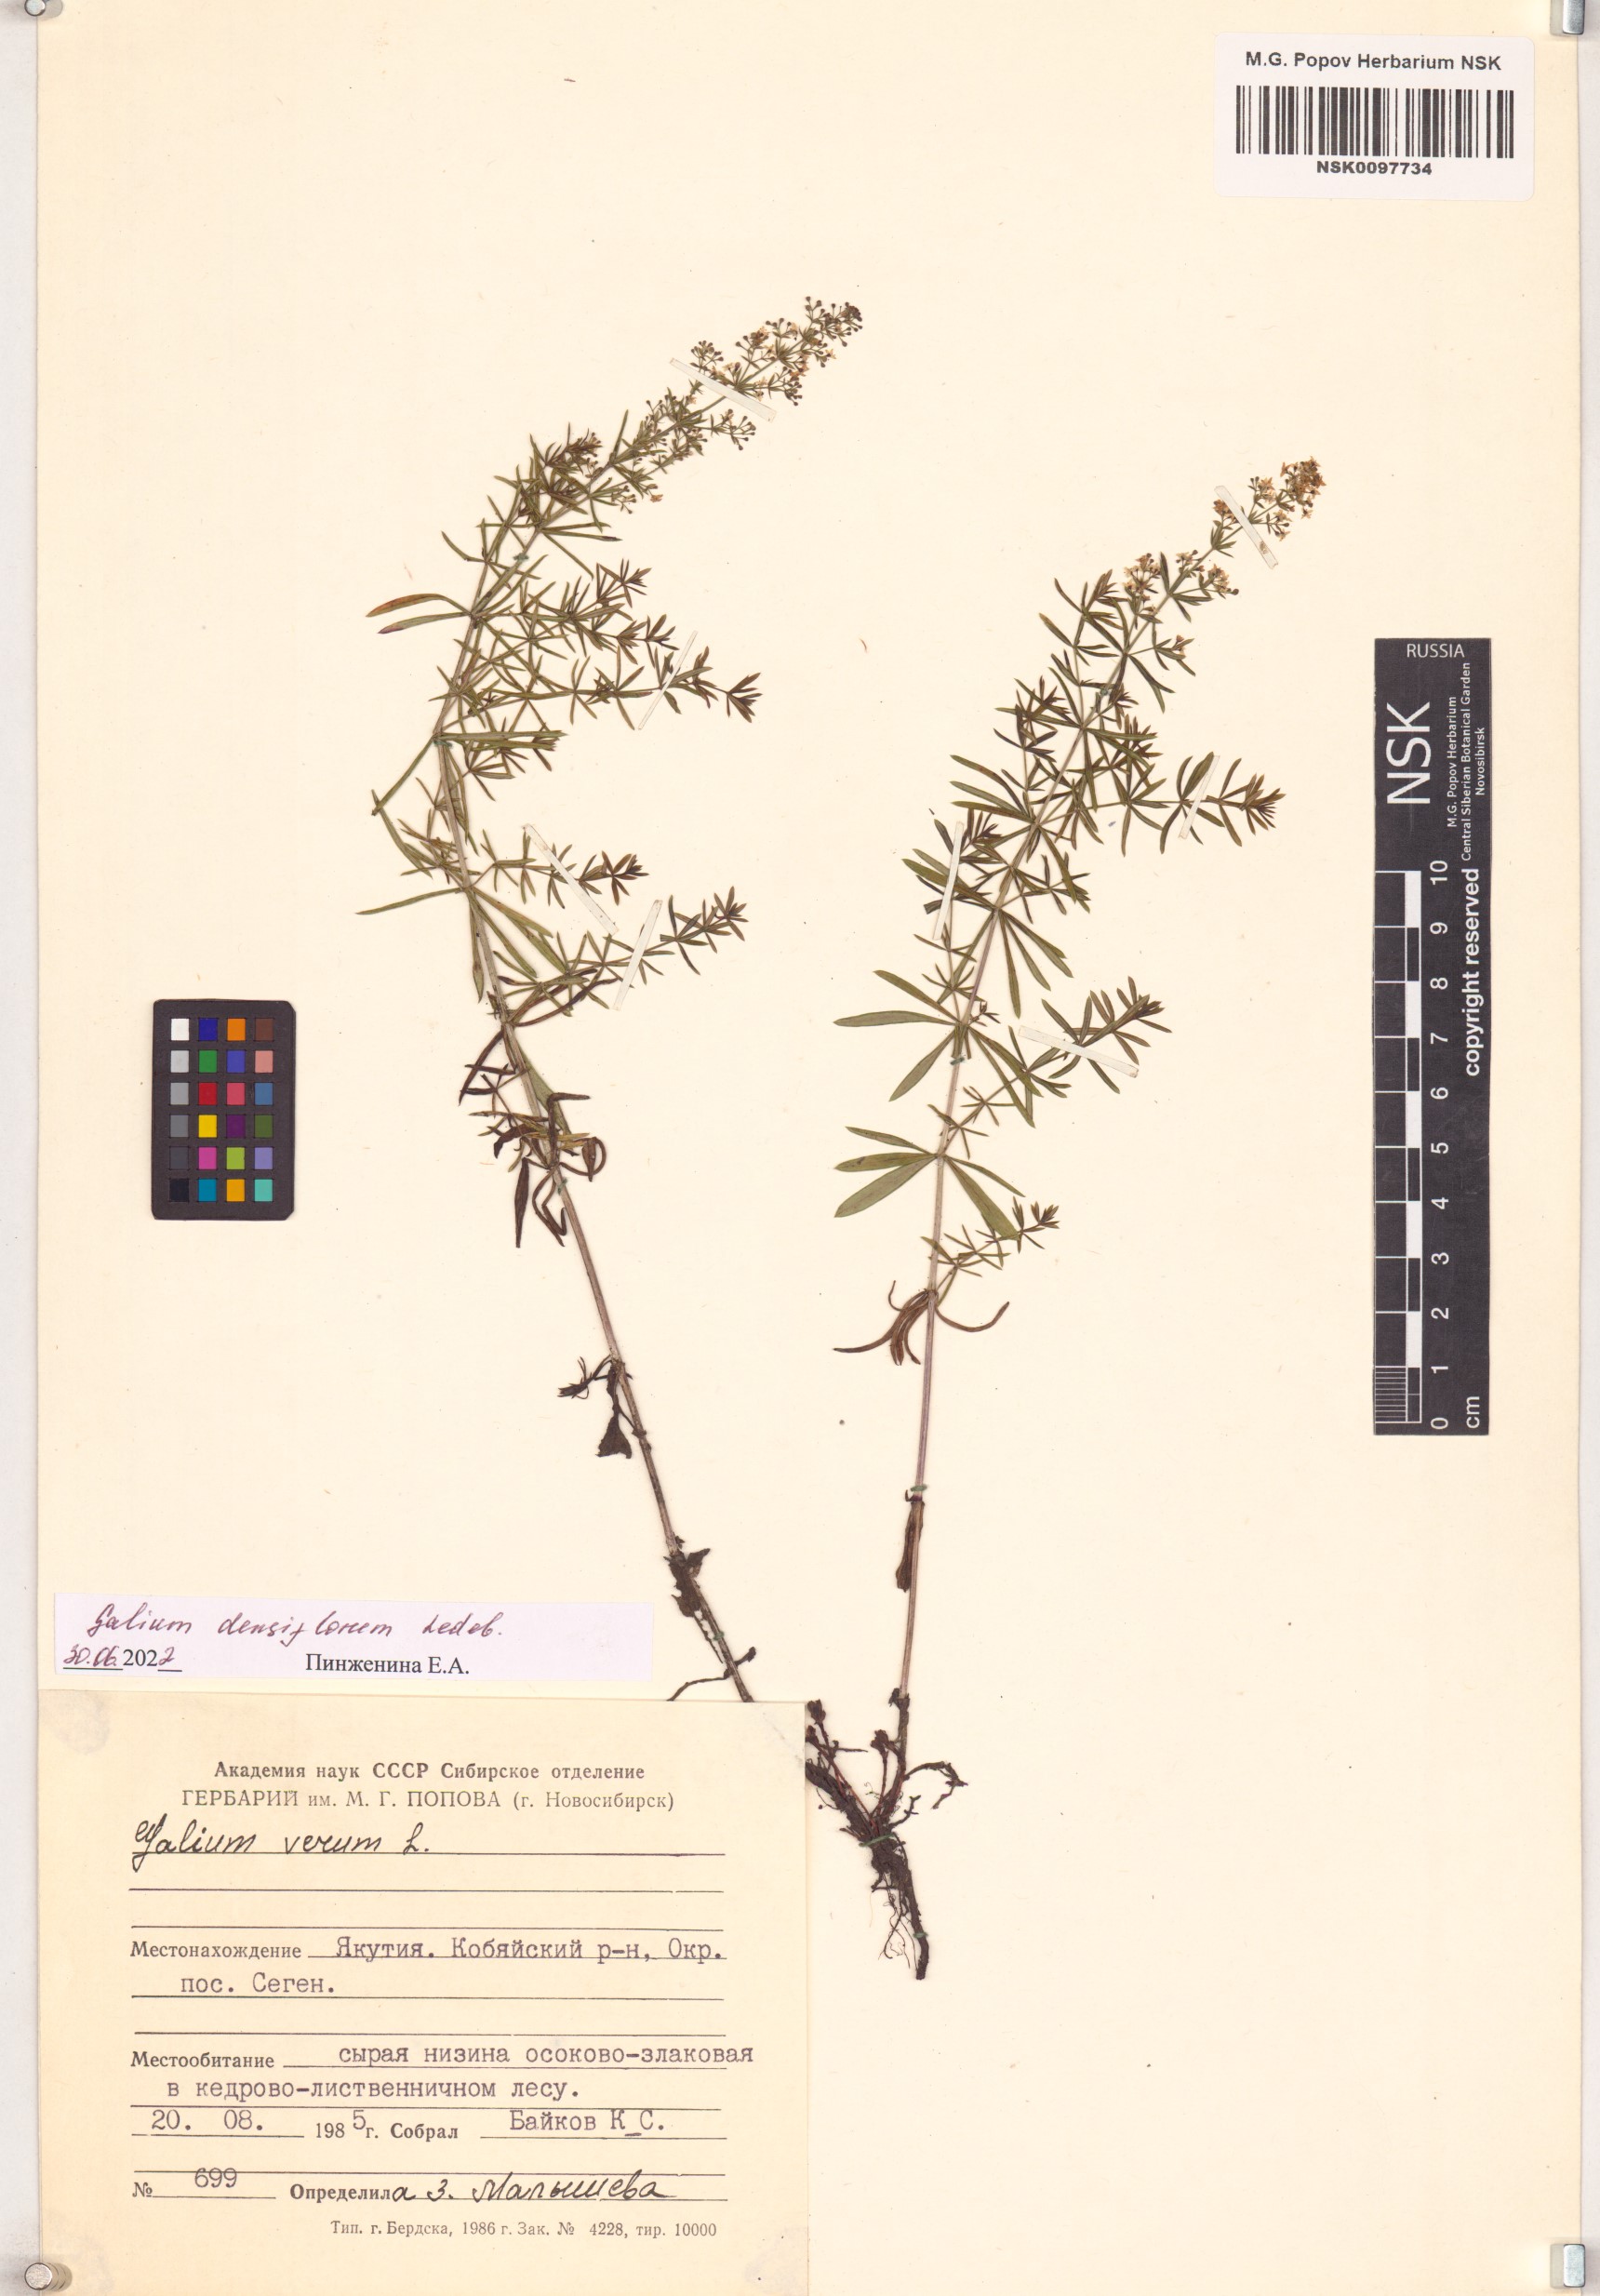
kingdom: Plantae
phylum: Tracheophyta
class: Magnoliopsida
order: Gentianales
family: Rubiaceae
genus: Galium
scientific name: Galium densiflorum
